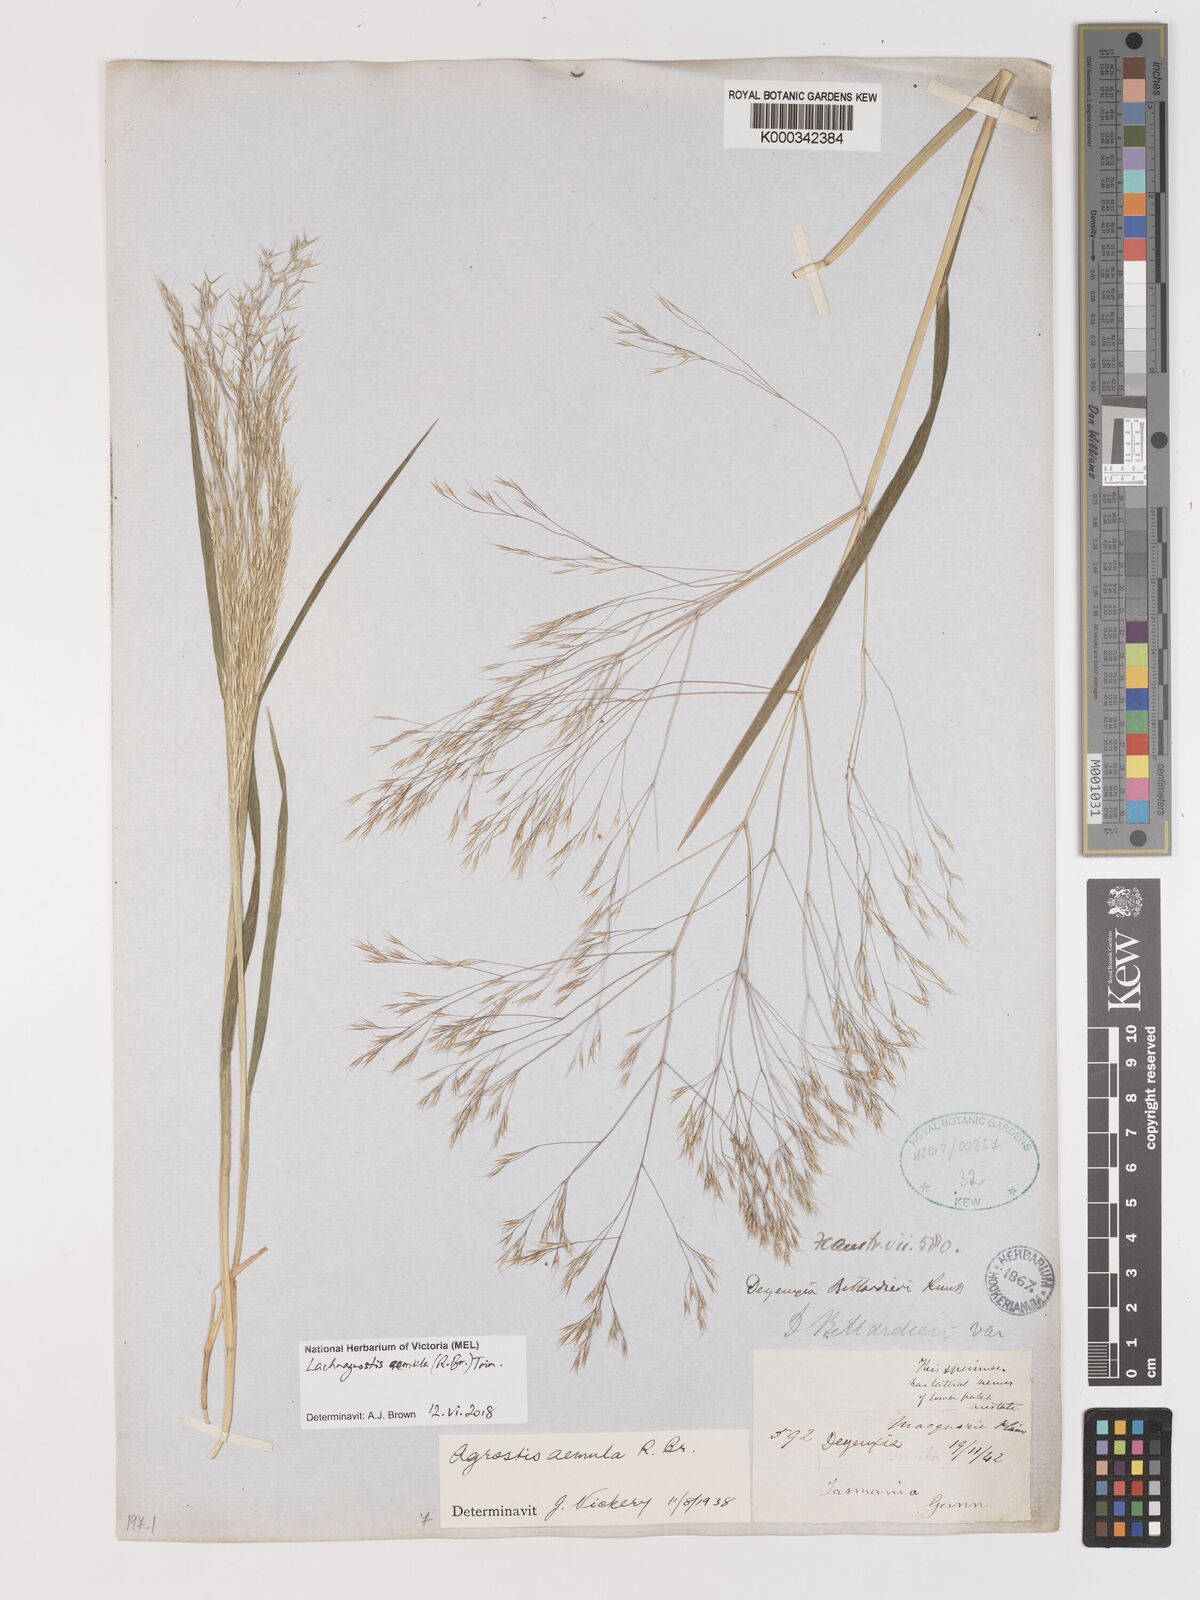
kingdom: Plantae
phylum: Tracheophyta
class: Liliopsida
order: Poales
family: Poaceae
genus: Lachnagrostis
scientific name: Lachnagrostis aemula
